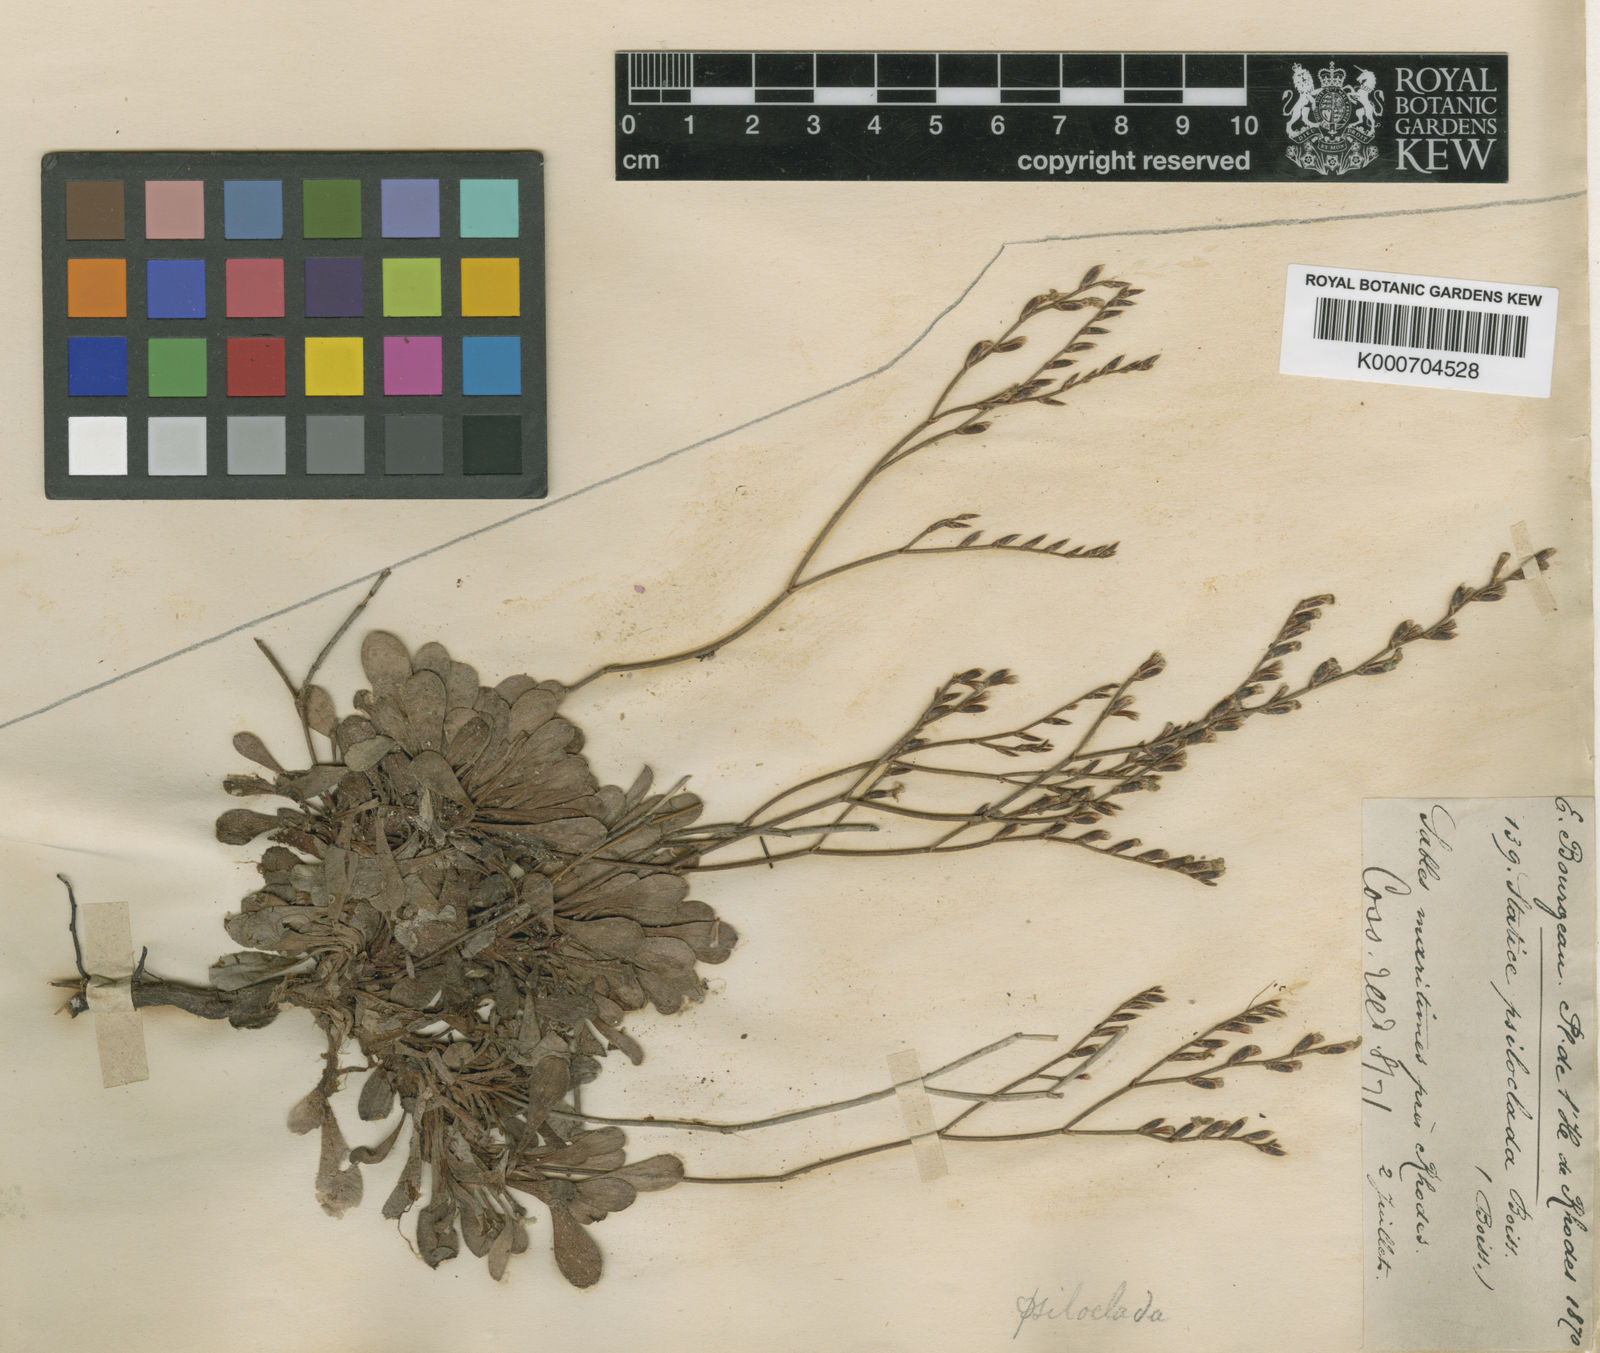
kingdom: Plantae
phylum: Tracheophyta
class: Magnoliopsida
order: Caryophyllales
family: Plumbaginaceae
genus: Limonium
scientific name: Limonium
